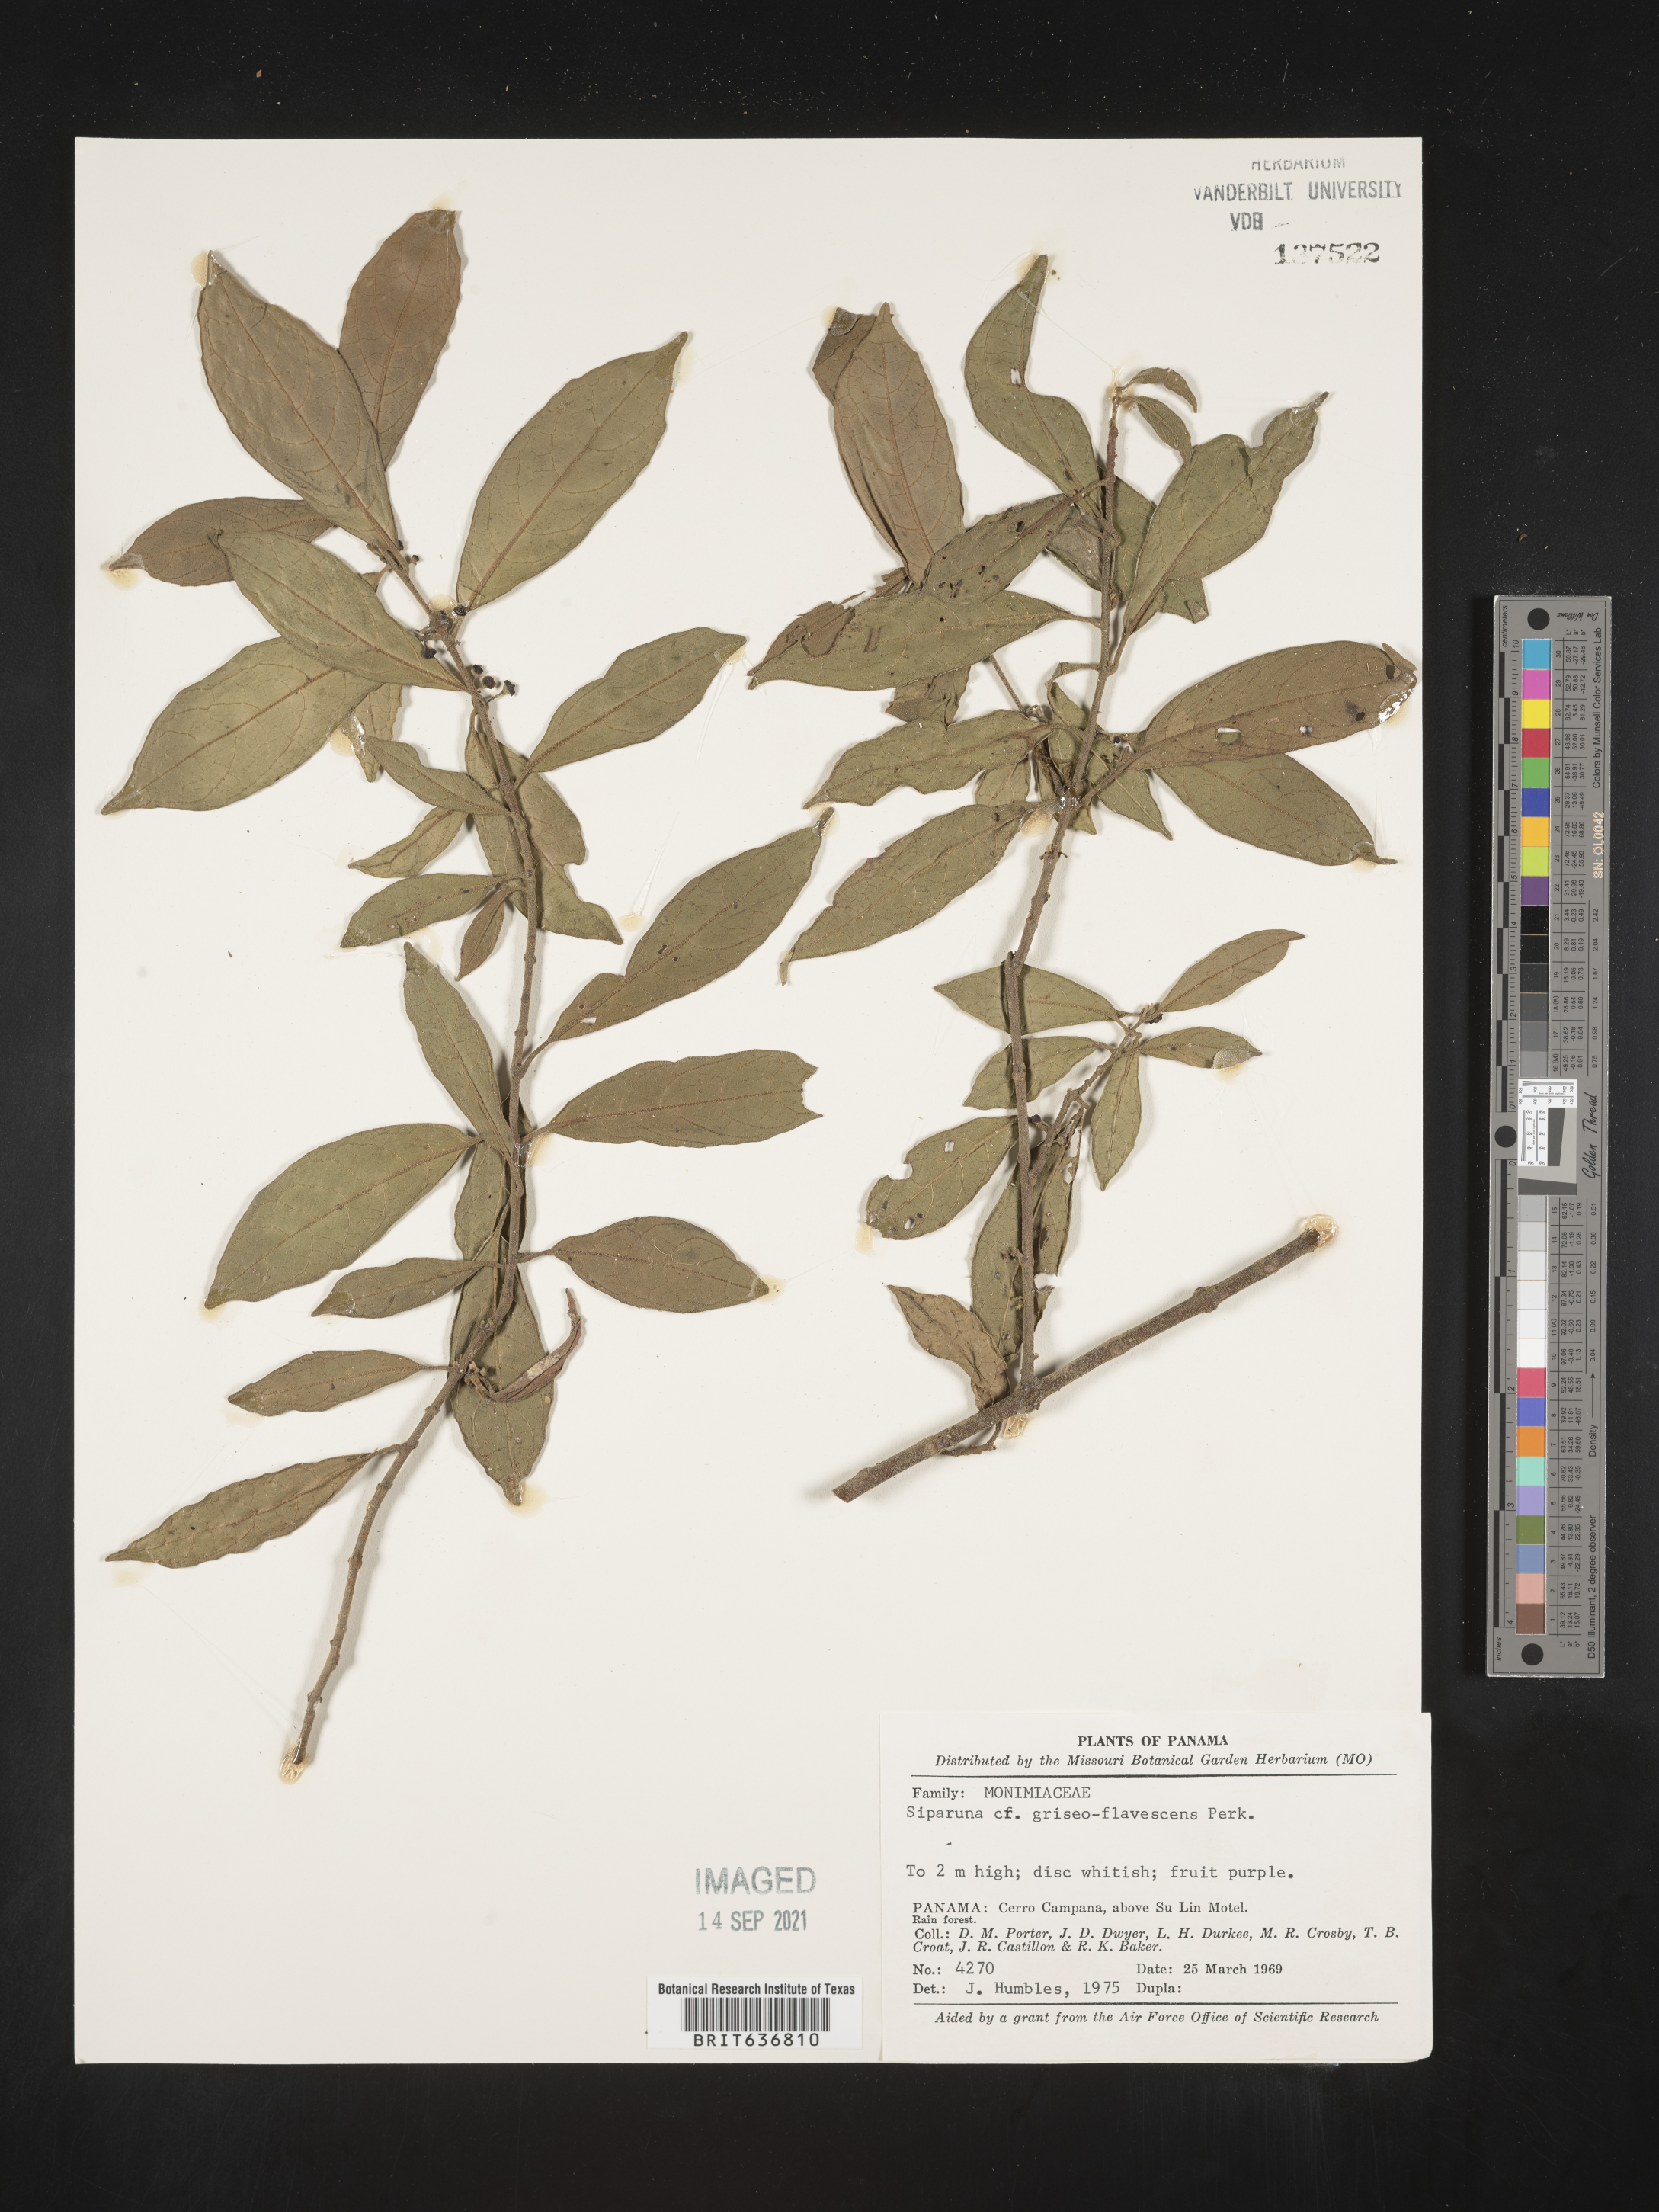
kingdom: Plantae
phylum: Tracheophyta
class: Magnoliopsida
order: Laurales
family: Siparunaceae
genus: Siparuna
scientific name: Siparuna
